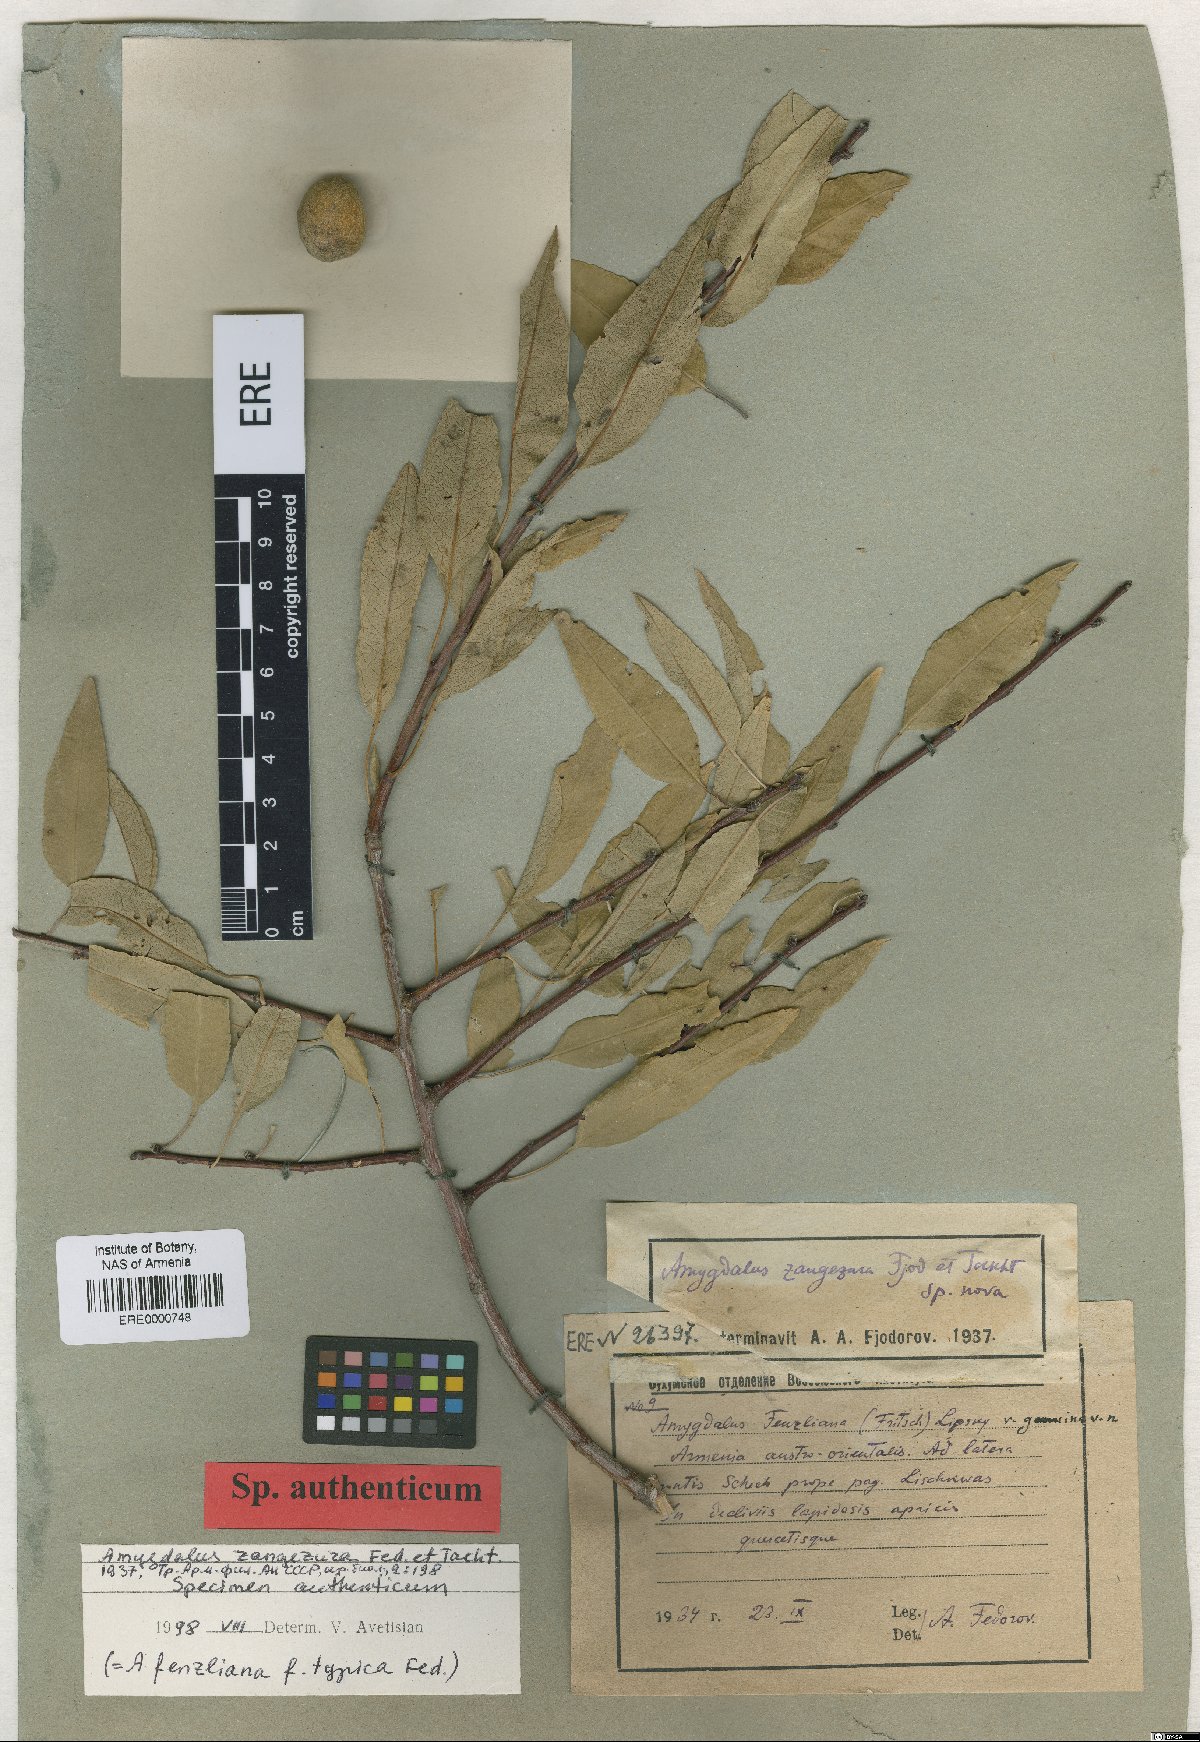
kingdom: Plantae
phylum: Tracheophyta
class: Magnoliopsida
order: Rosales
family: Rosaceae
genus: Prunus
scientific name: Prunus Amygdalus zangezura
